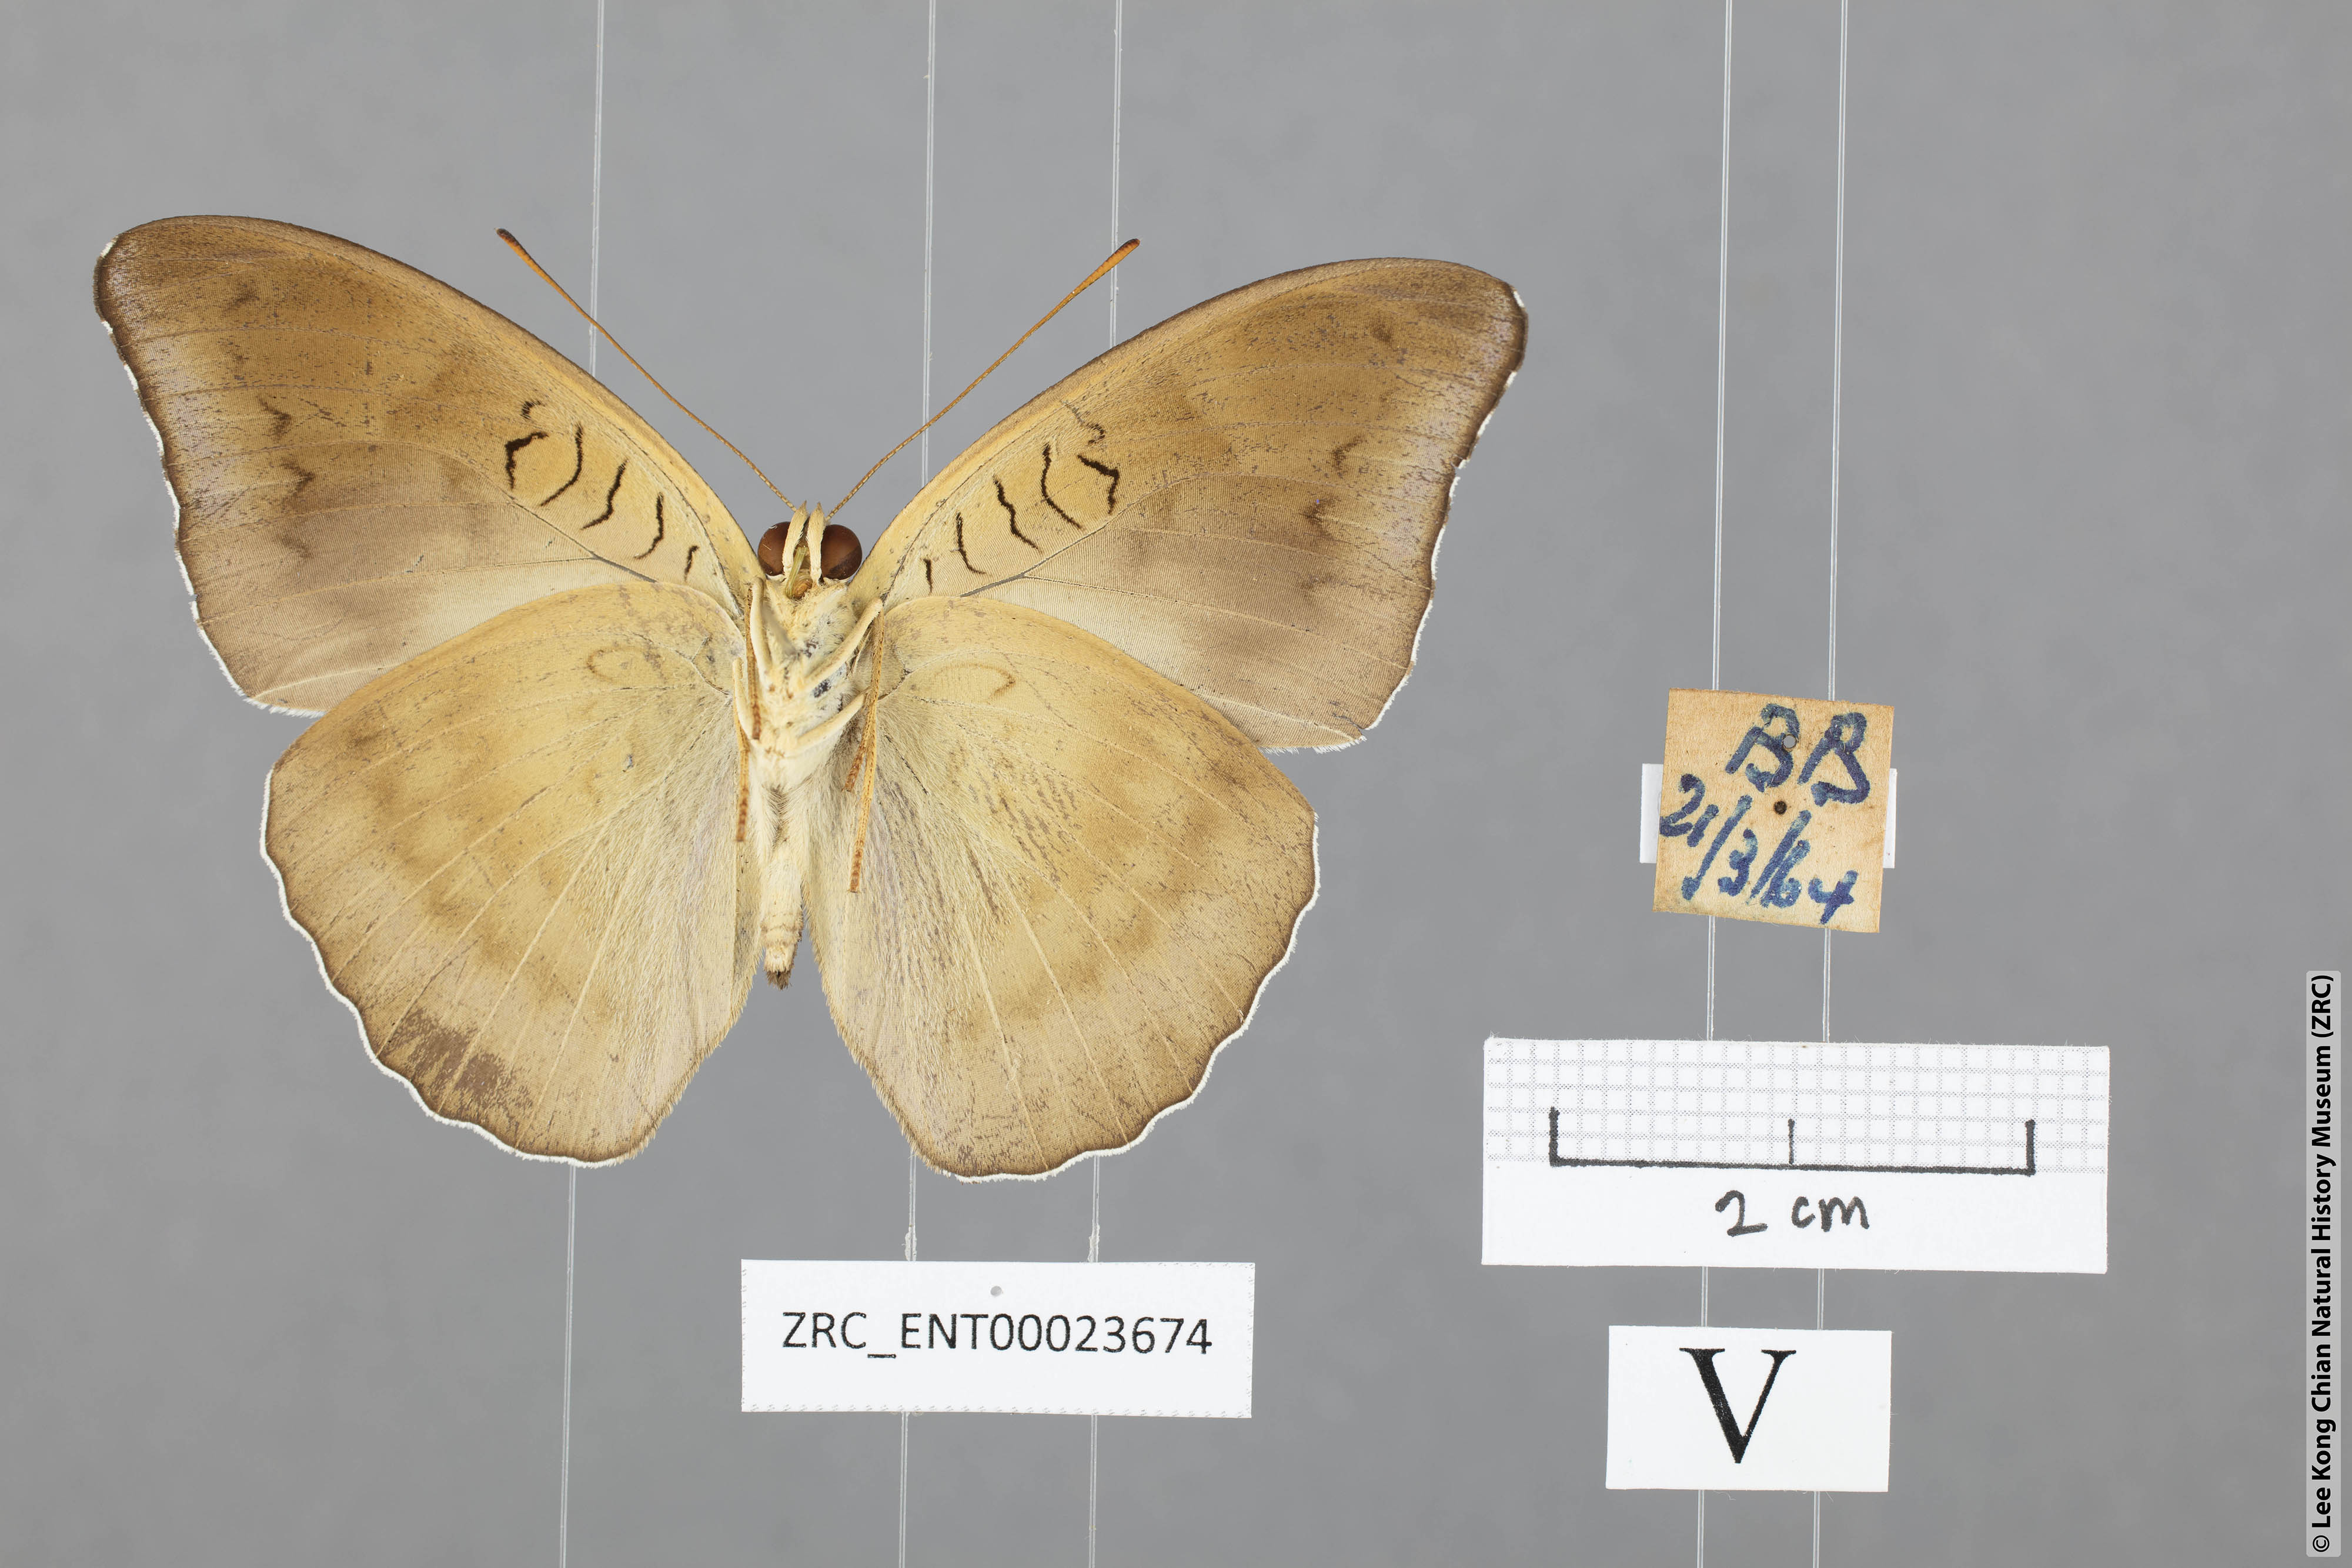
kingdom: Animalia
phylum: Arthropoda
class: Insecta
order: Lepidoptera
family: Nymphalidae
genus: Tanaecia
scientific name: Tanaecia iapis
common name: Horsfield's baron
